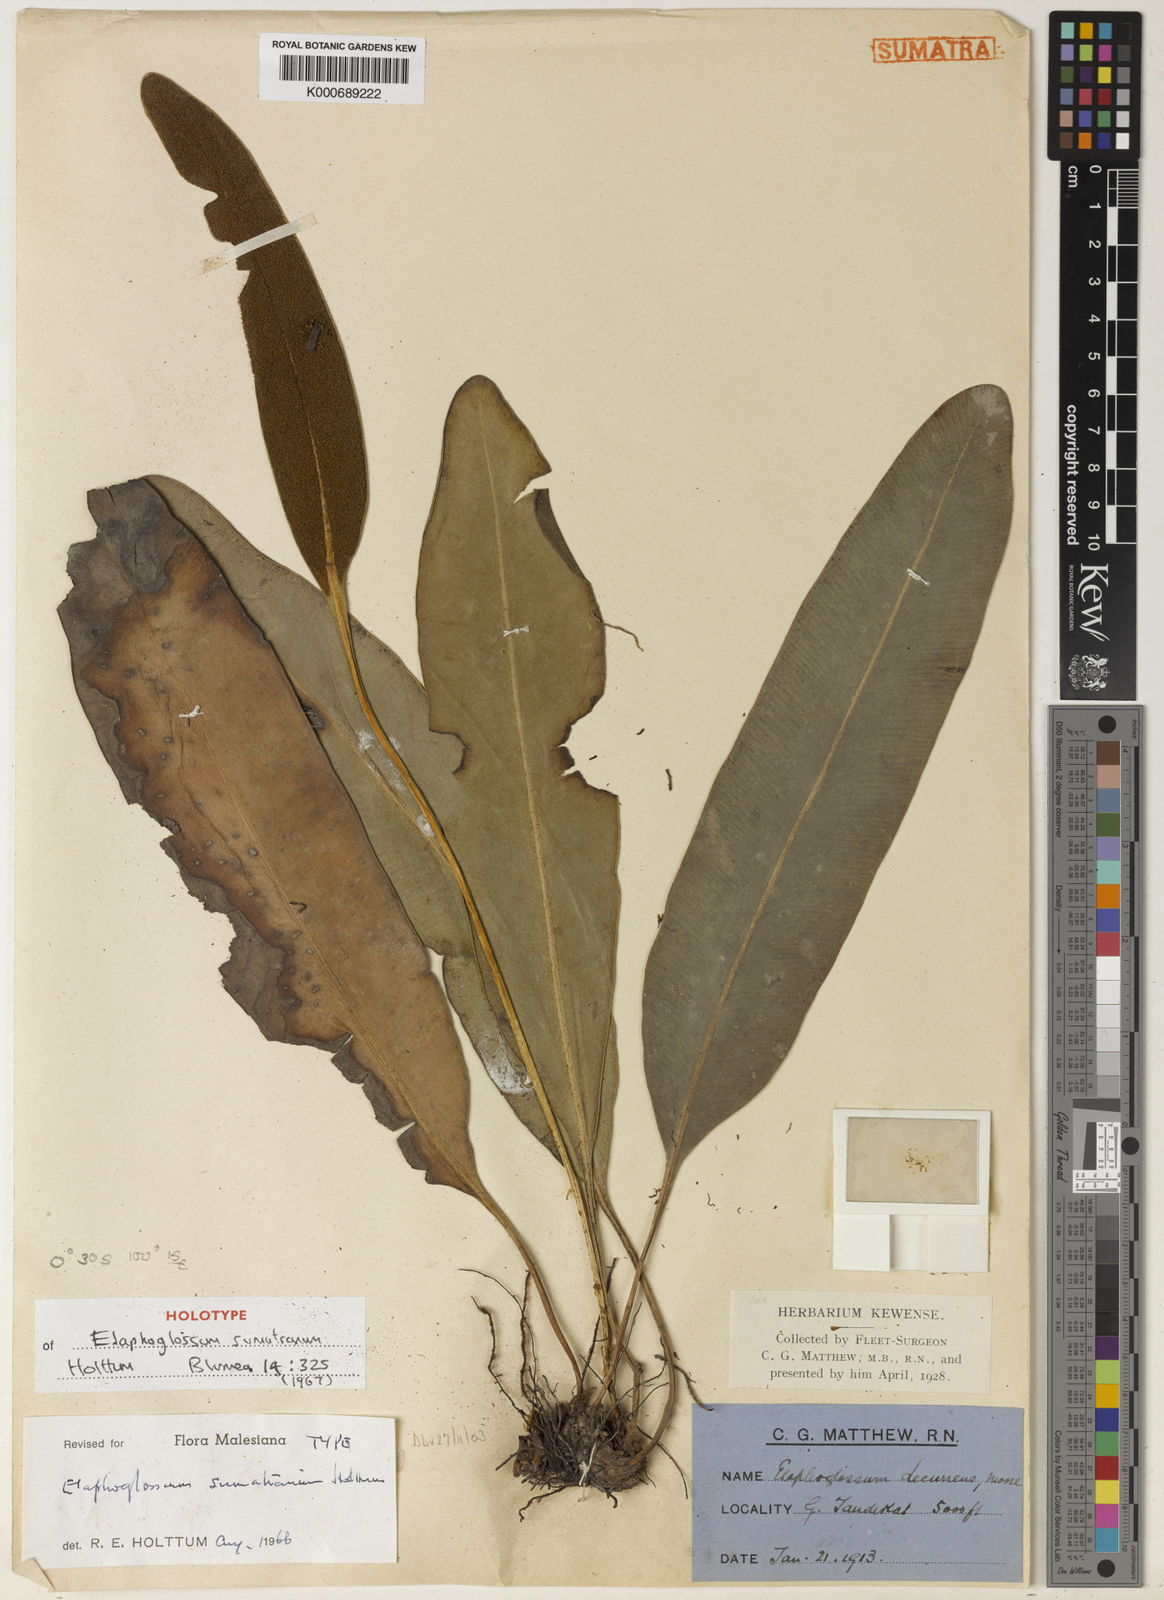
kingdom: Plantae
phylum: Tracheophyta
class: Polypodiopsida
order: Polypodiales
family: Dryopteridaceae
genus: Elaphoglossum
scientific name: Elaphoglossum sumatranum
